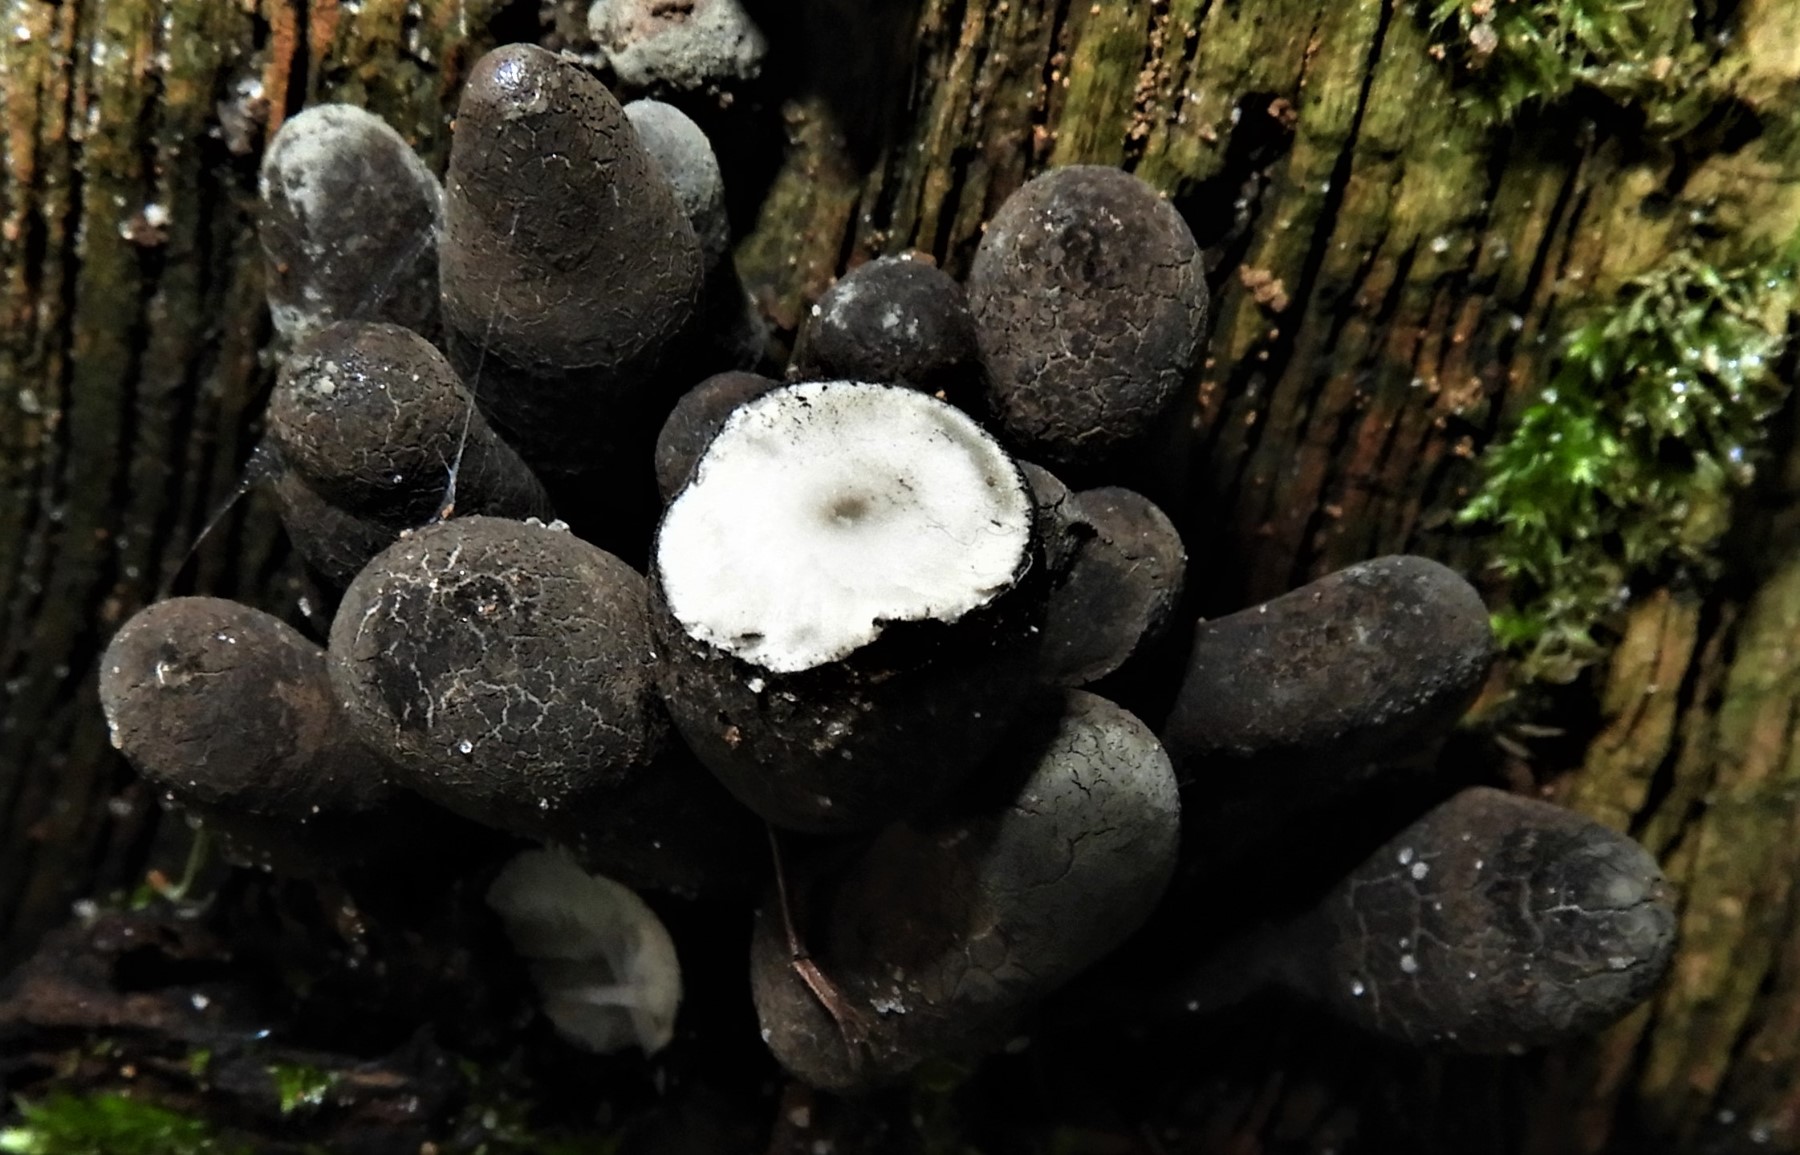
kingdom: Fungi
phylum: Ascomycota
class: Sordariomycetes
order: Xylariales
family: Xylariaceae
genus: Xylaria
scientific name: Xylaria polymorpha
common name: kølle-stødsvamp
